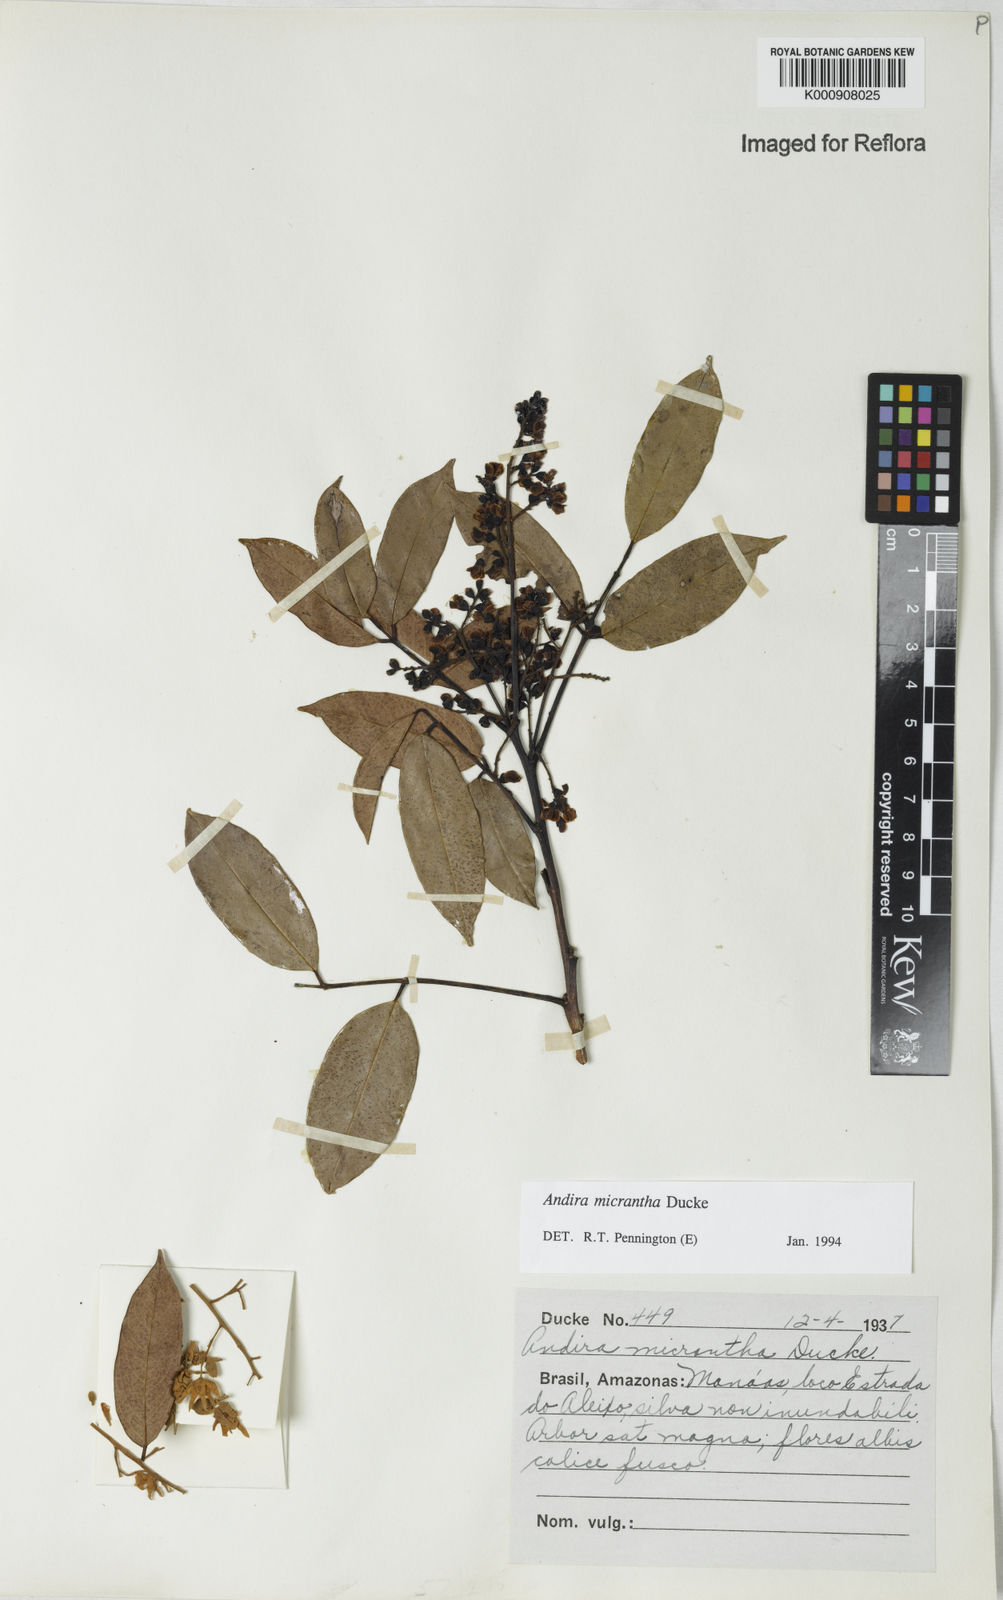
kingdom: Plantae
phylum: Tracheophyta
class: Magnoliopsida
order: Fabales
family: Fabaceae
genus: Andira
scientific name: Andira micrantha
